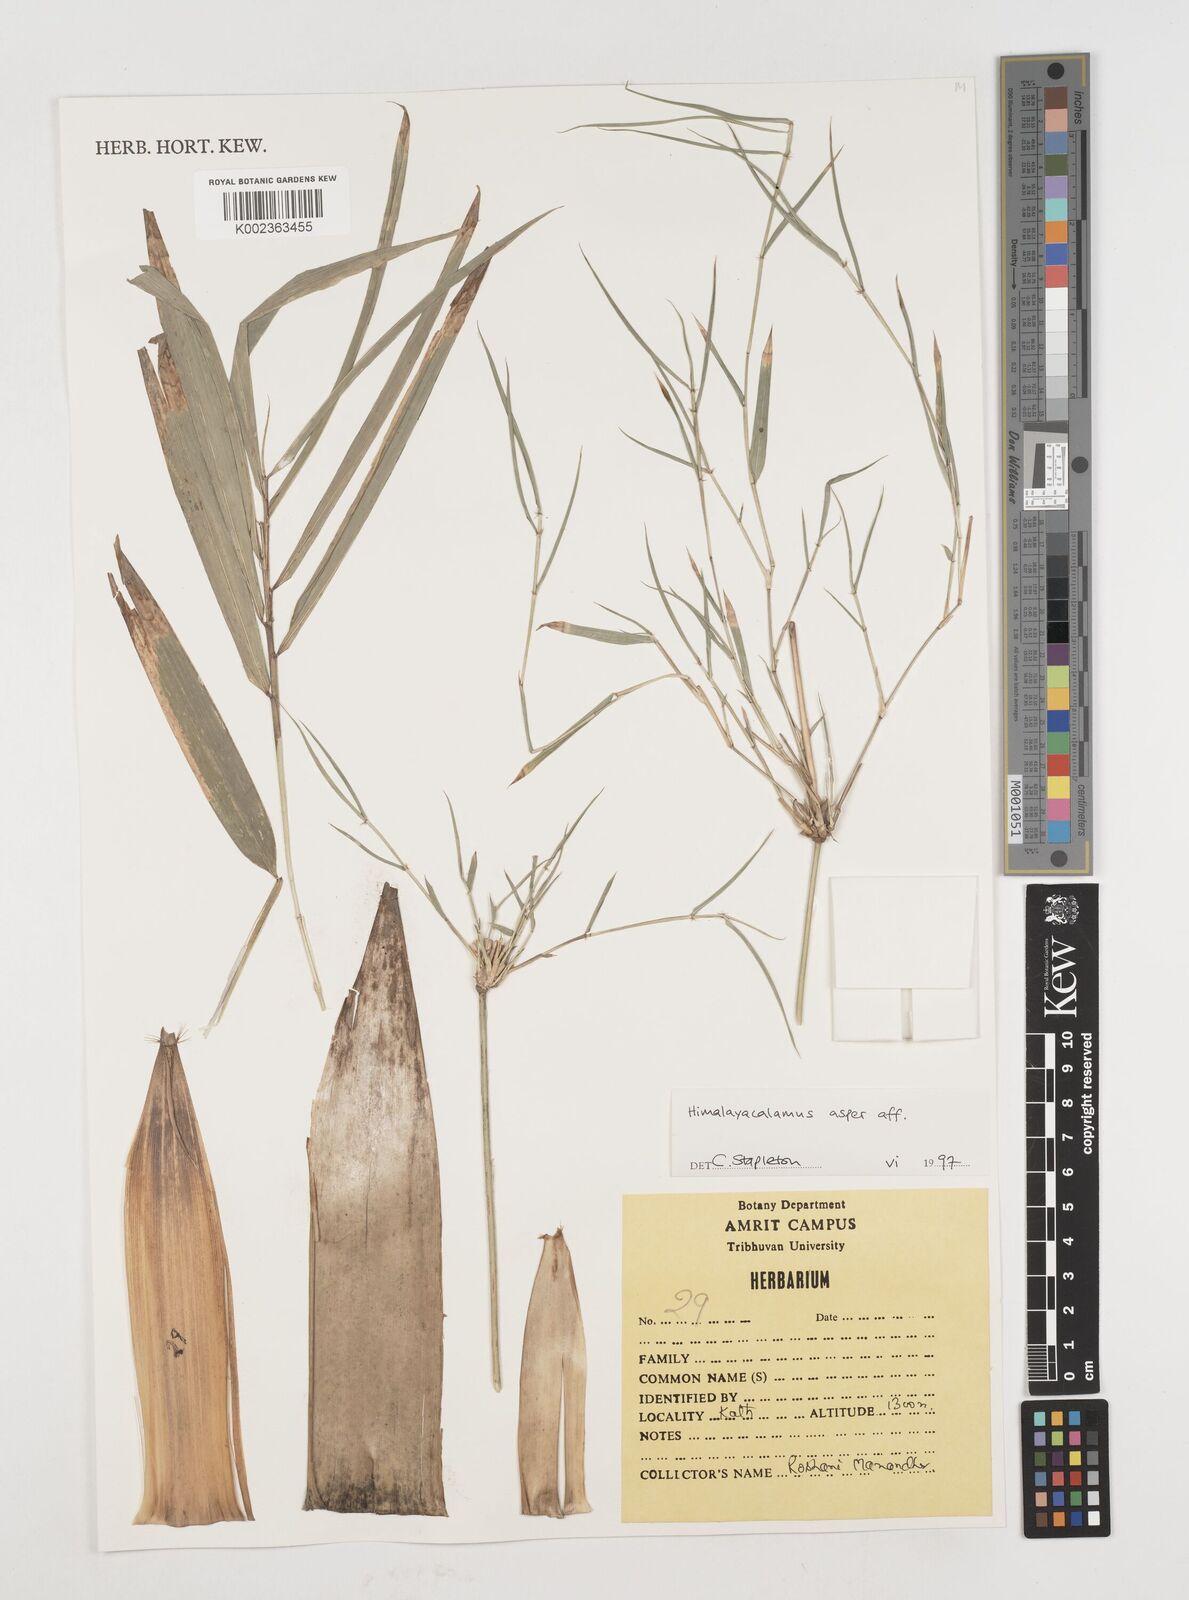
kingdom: Plantae
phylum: Tracheophyta
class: Liliopsida
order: Poales
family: Poaceae
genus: Himalayacalamus
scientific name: Himalayacalamus asper
